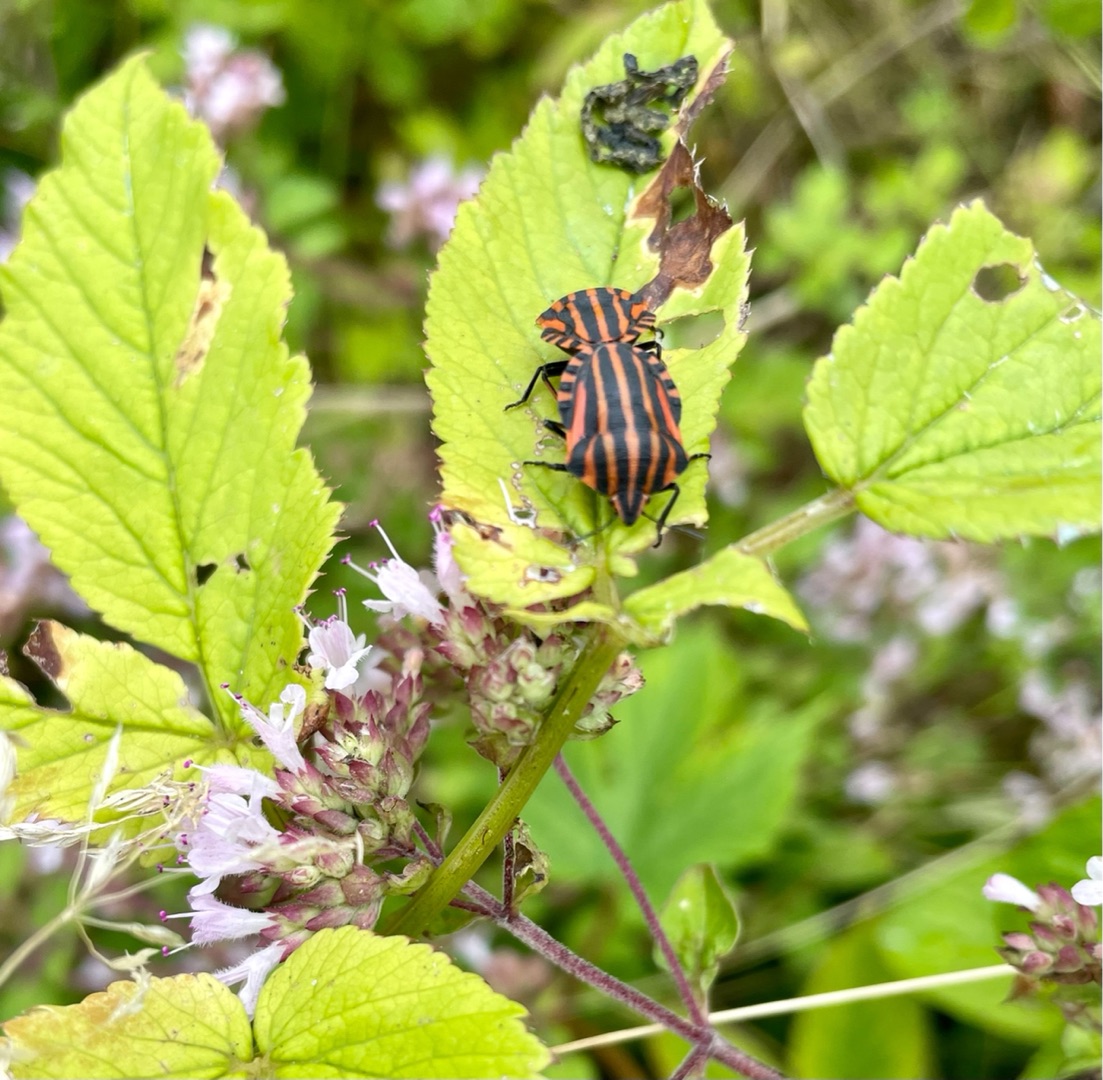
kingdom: Animalia
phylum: Arthropoda
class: Insecta
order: Hemiptera
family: Pentatomidae
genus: Graphosoma
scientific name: Graphosoma italicum
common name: Stribetæge
